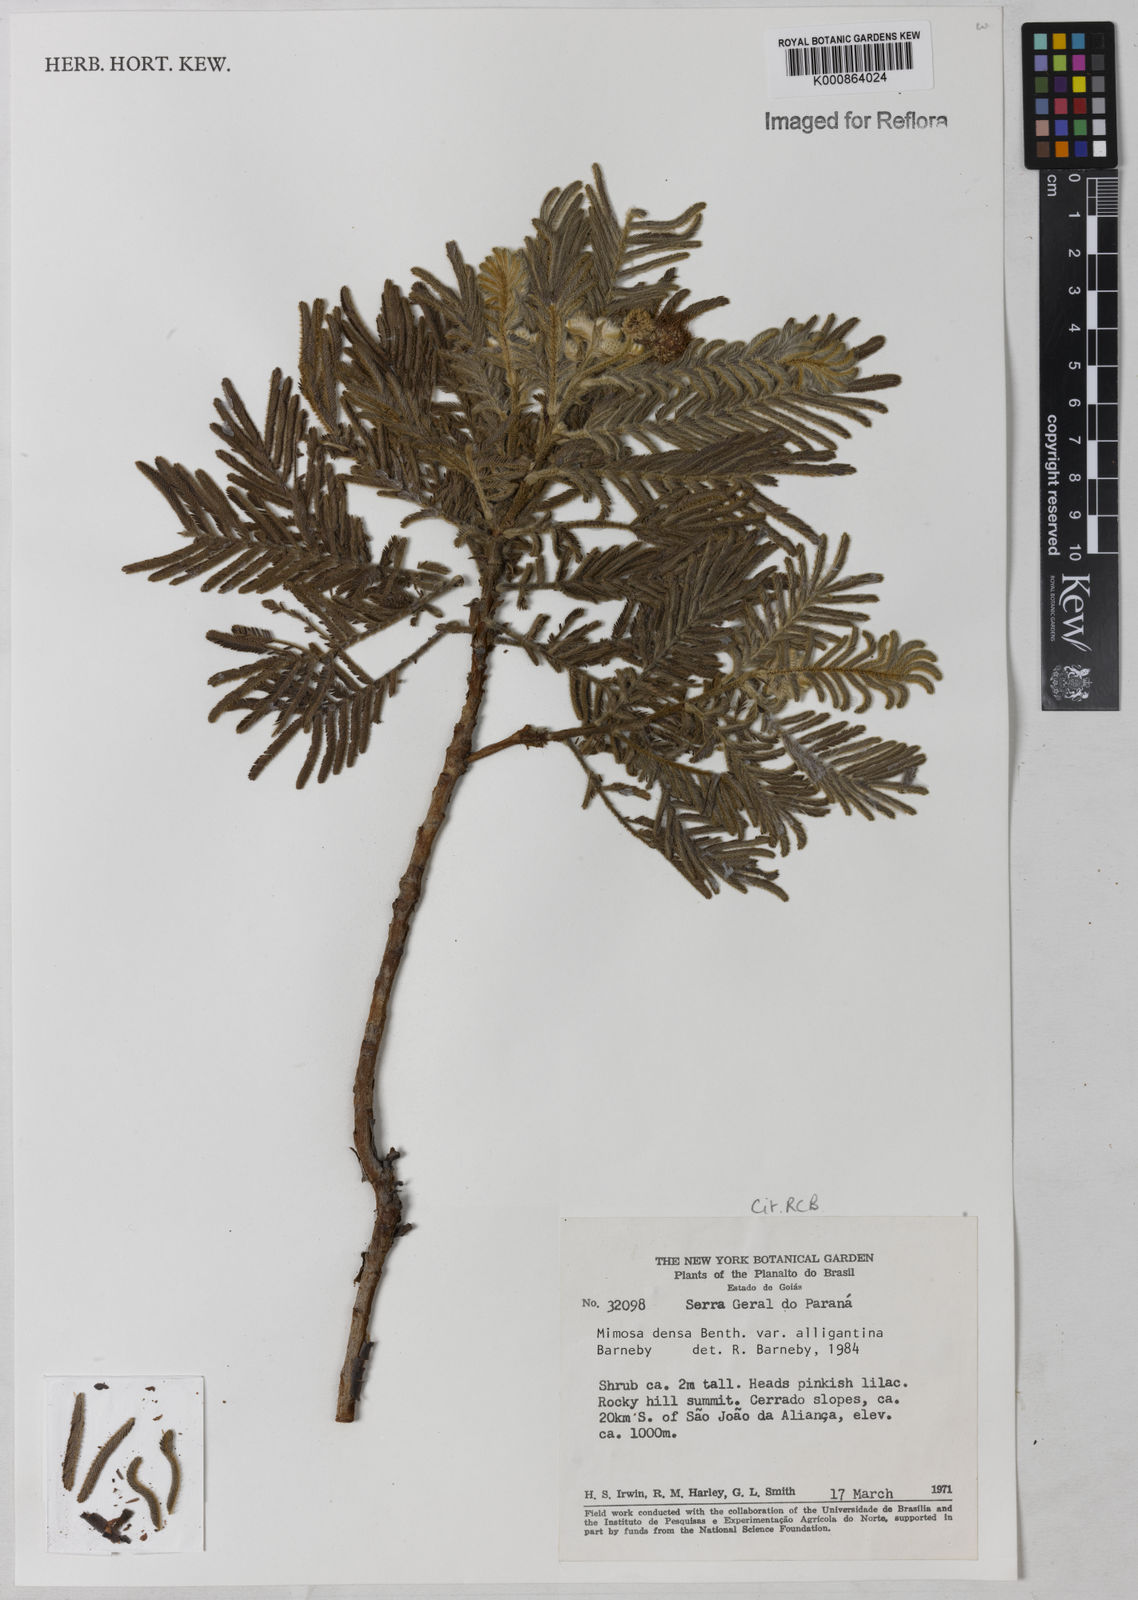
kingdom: Plantae
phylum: Tracheophyta
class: Magnoliopsida
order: Fabales
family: Fabaceae
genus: Mimosa
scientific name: Mimosa densa
